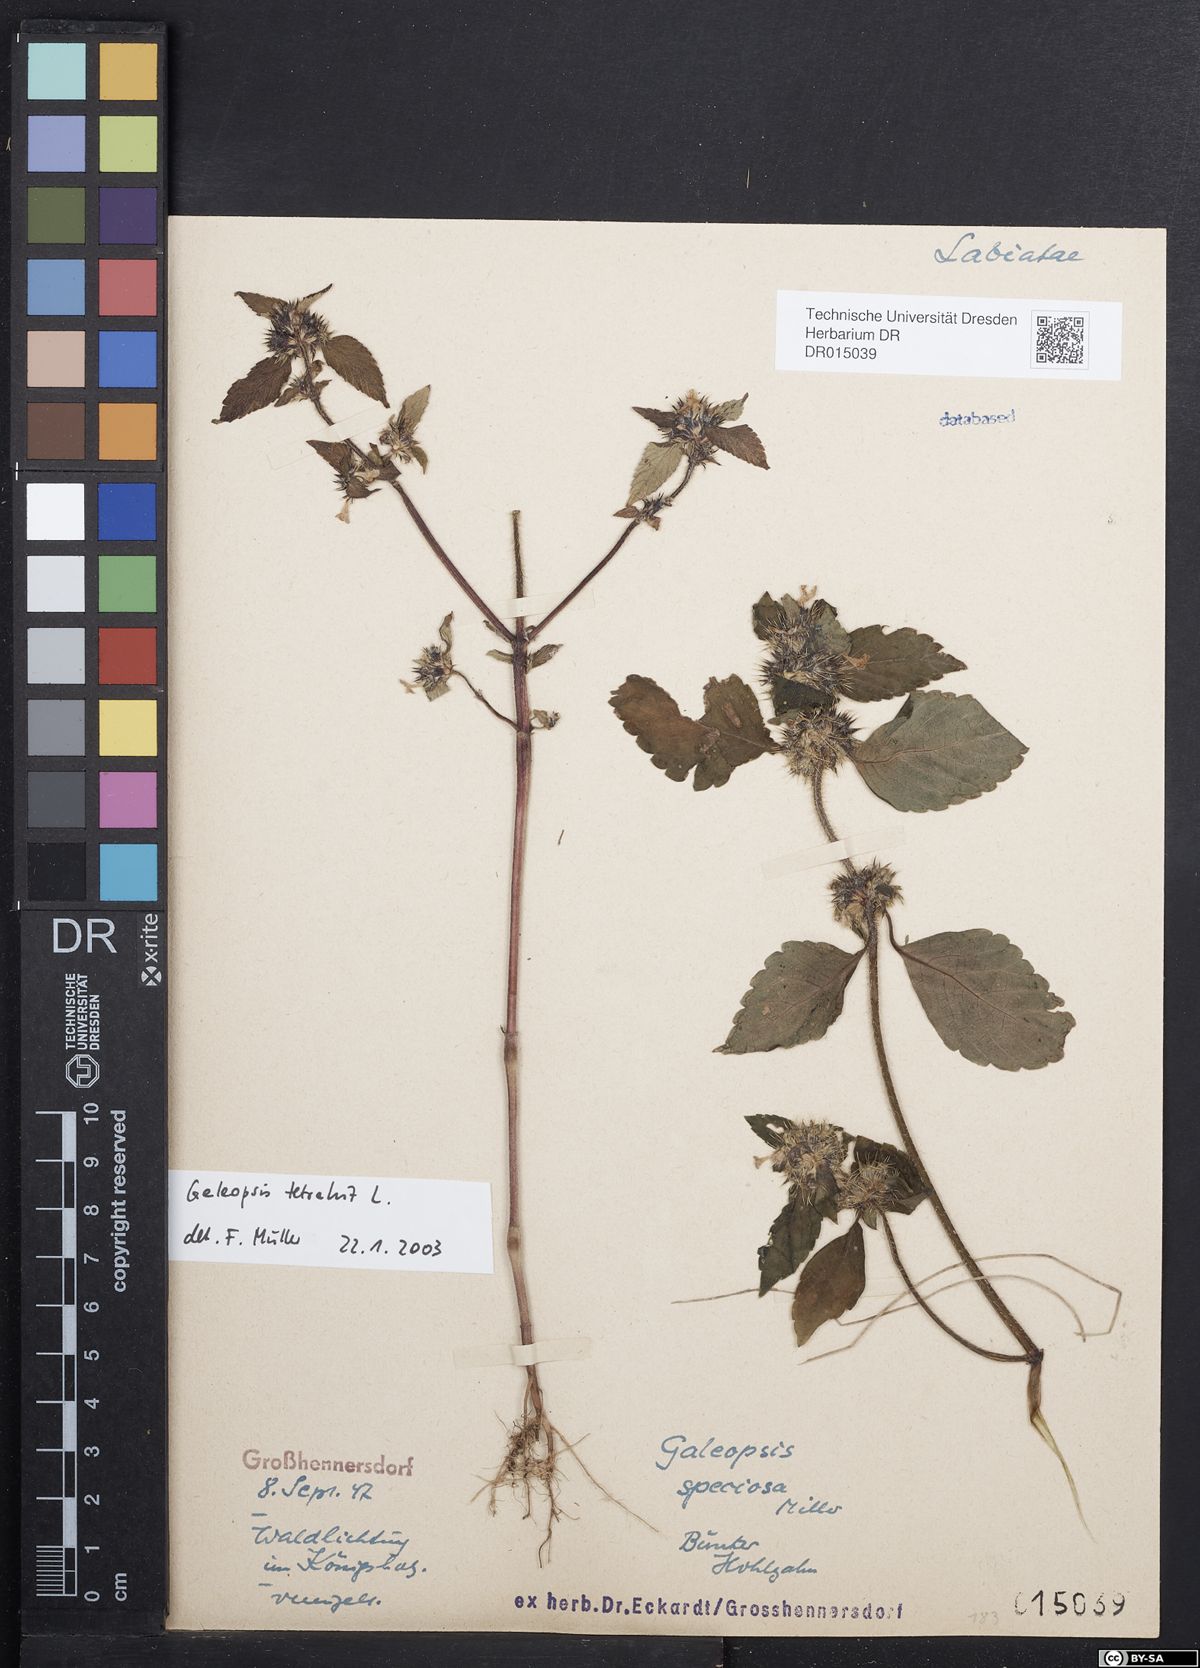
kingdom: Plantae
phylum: Tracheophyta
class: Magnoliopsida
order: Lamiales
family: Lamiaceae
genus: Galeopsis
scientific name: Galeopsis tetrahit
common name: Common hemp-nettle
